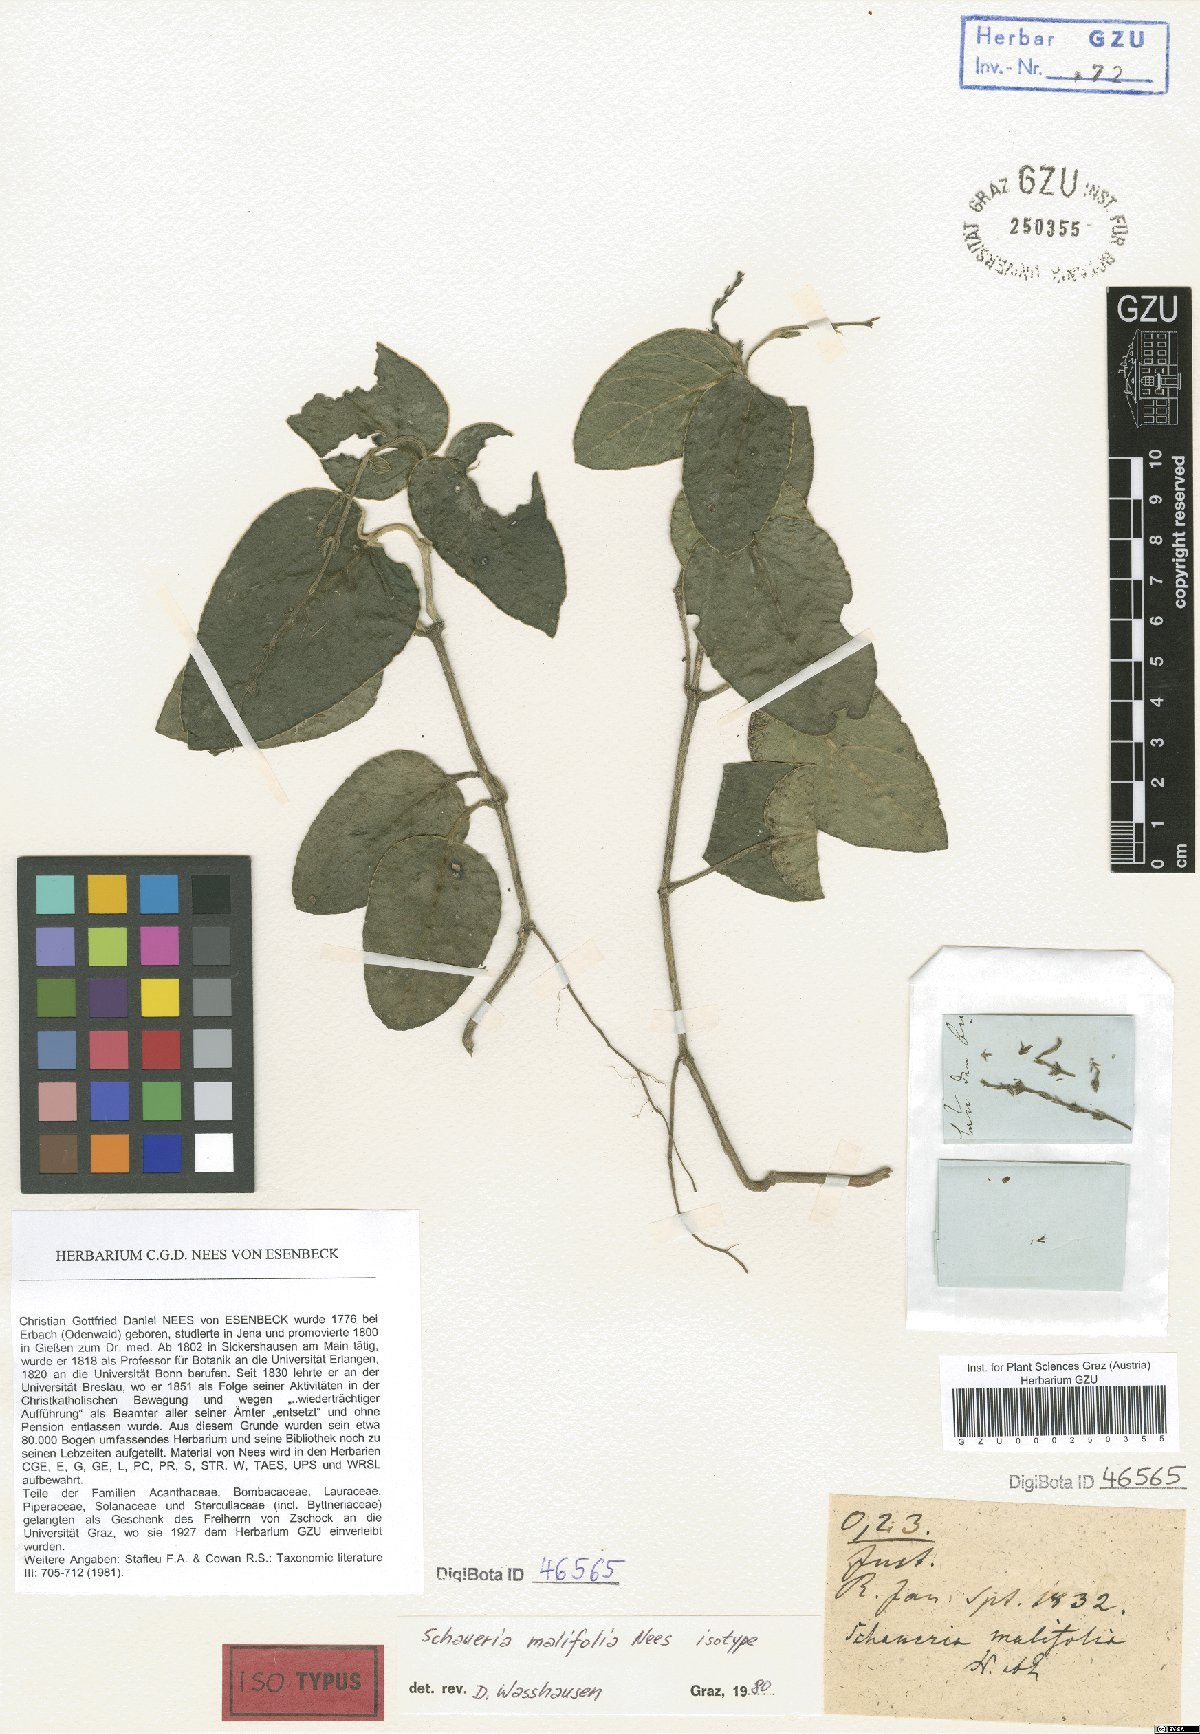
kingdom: Plantae
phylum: Tracheophyta
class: Magnoliopsida
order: Lamiales
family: Acanthaceae
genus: Chamaeranthemum
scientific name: Chamaeranthemum malifolium
